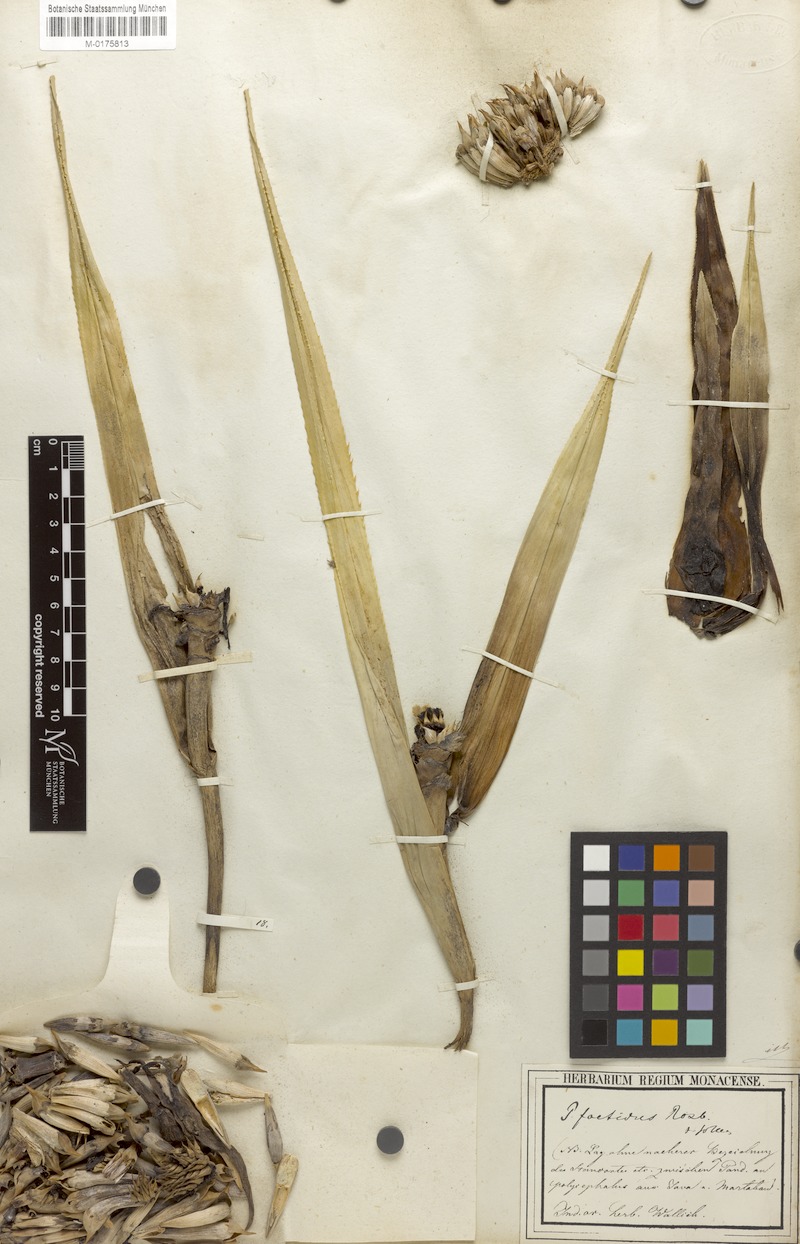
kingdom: Plantae
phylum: Tracheophyta
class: Liliopsida
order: Pandanales
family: Pandanaceae
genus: Benstonea
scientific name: Benstonea foetida
